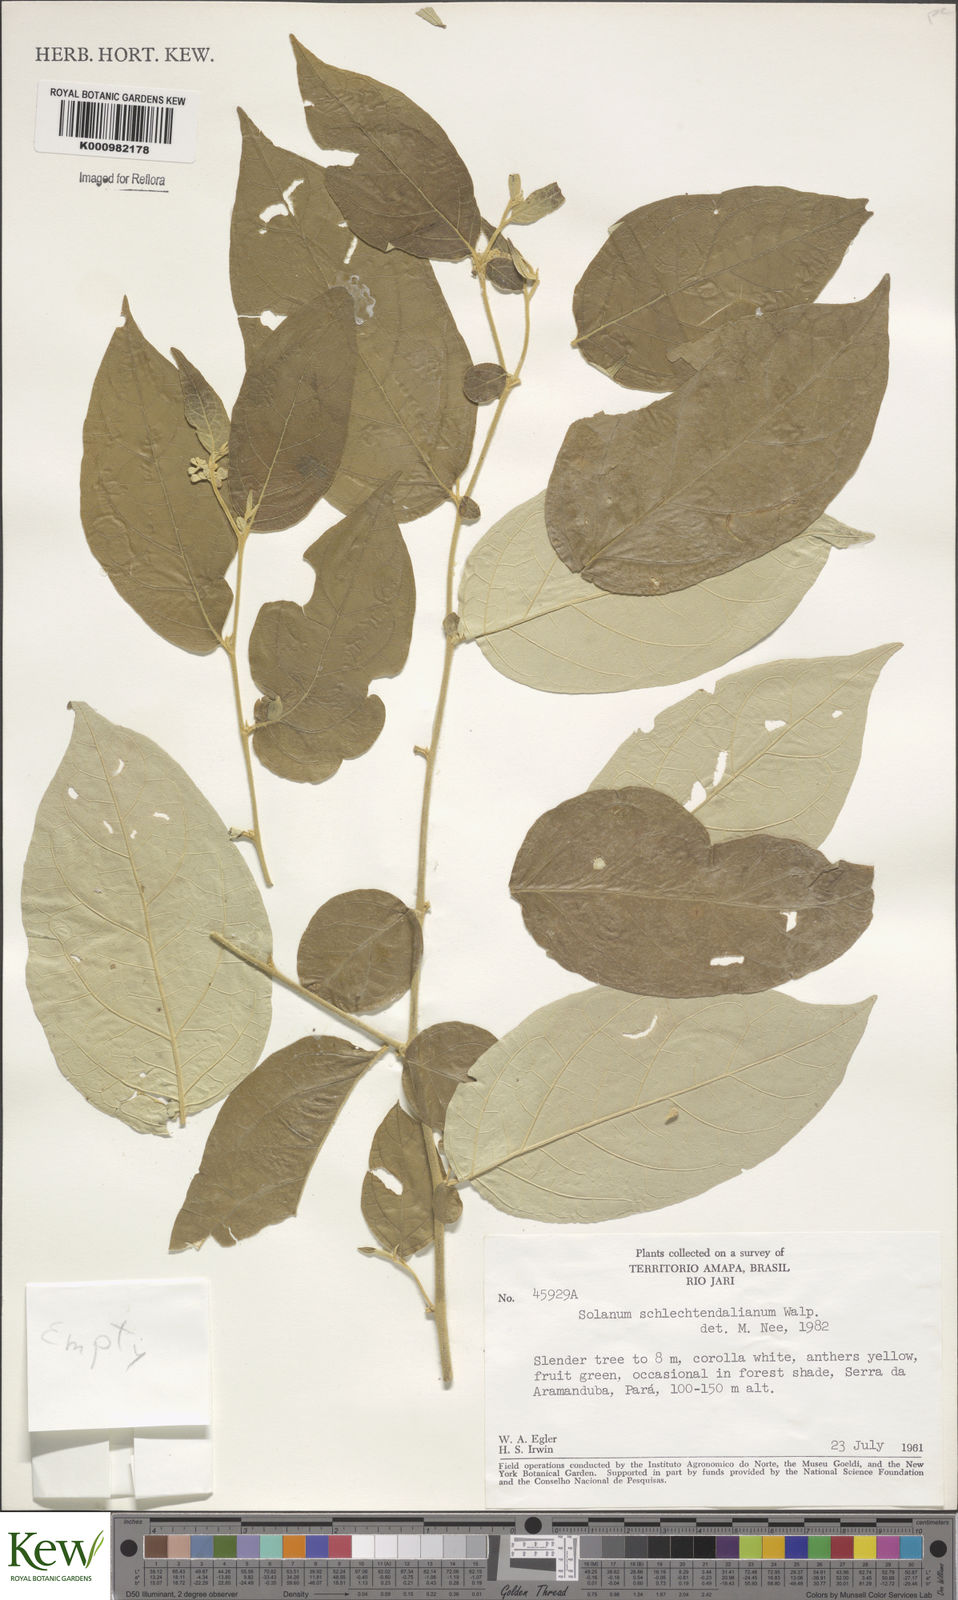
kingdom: Plantae
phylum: Tracheophyta
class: Magnoliopsida
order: Solanales
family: Solanaceae
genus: Solanum
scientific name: Solanum schlechtendalianum
